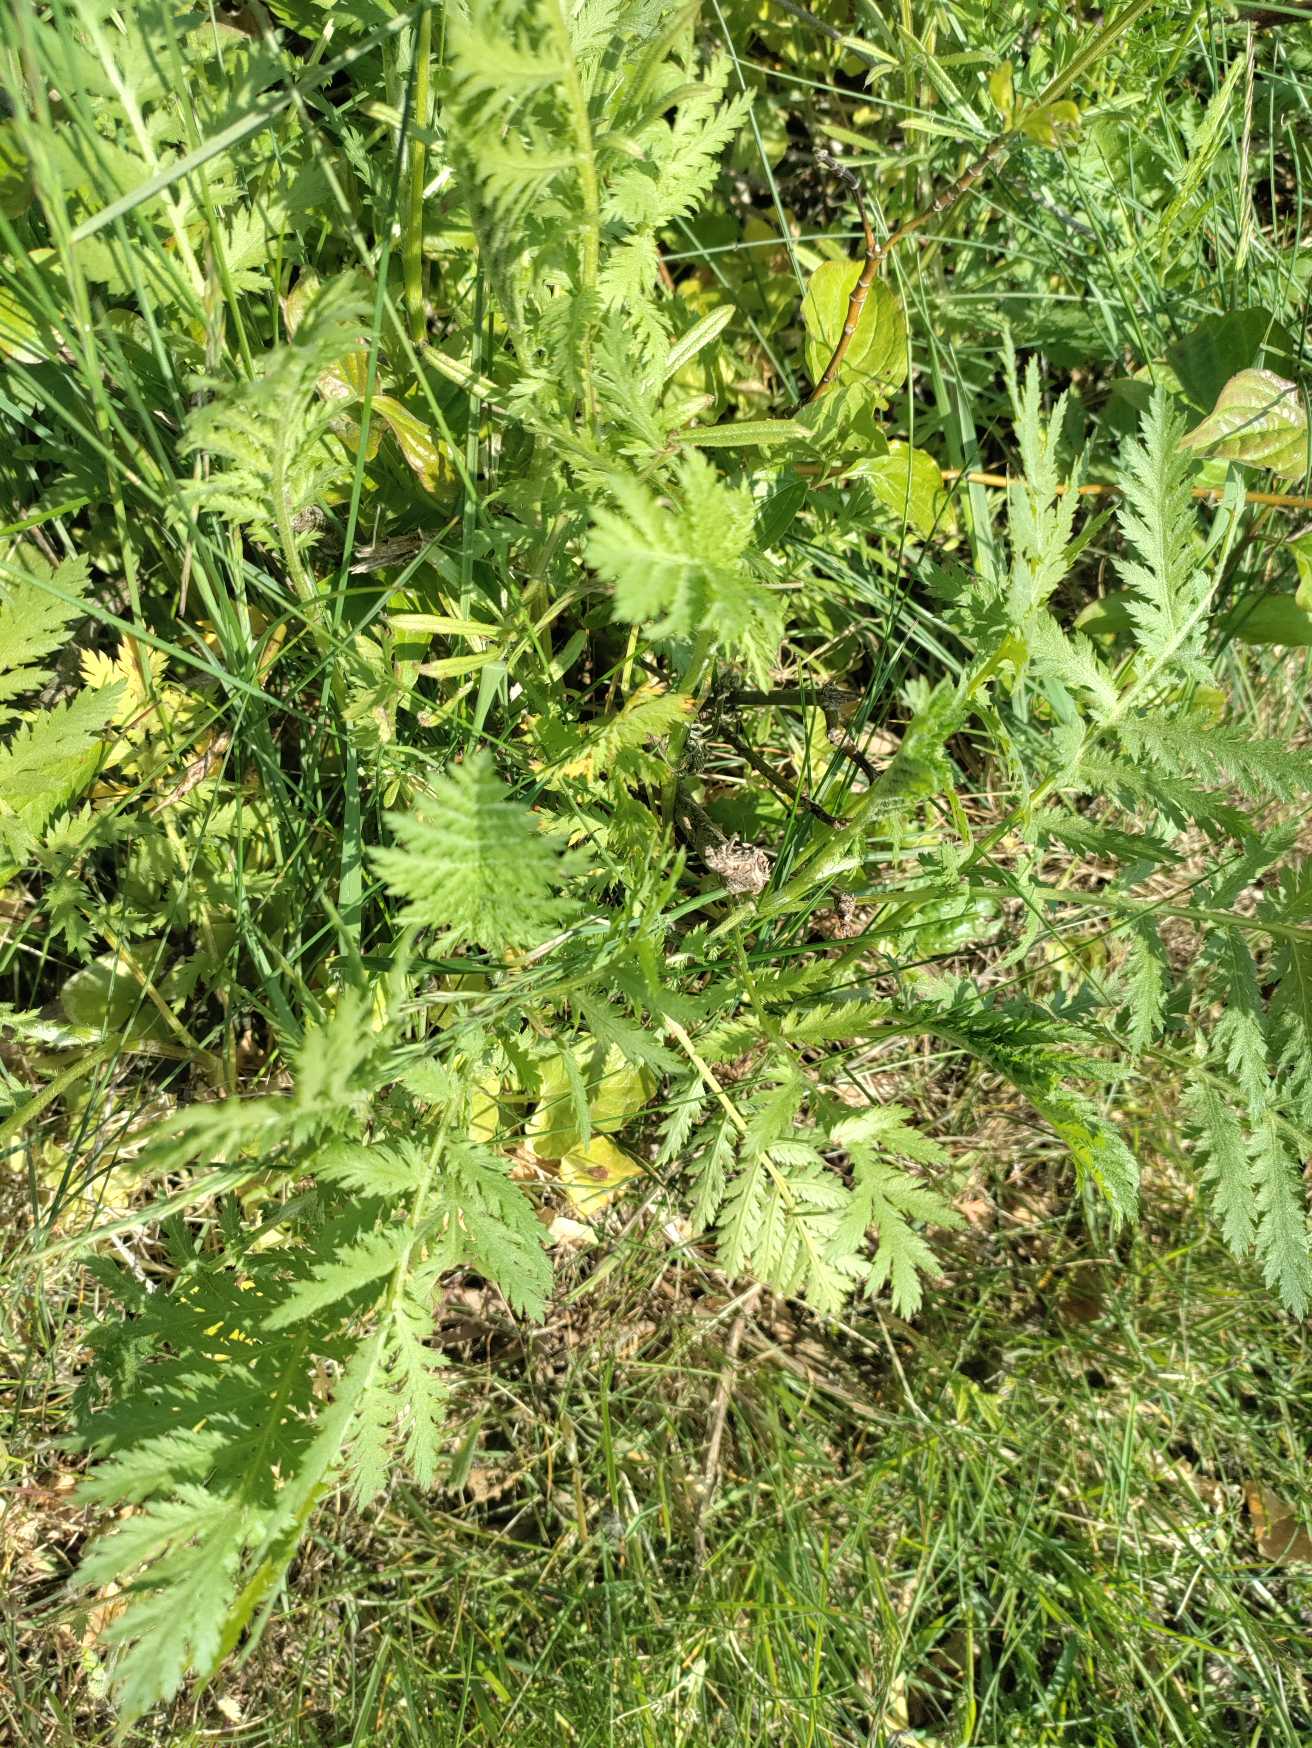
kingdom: Plantae
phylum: Tracheophyta
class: Magnoliopsida
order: Asterales
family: Asteraceae
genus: Tanacetum
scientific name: Tanacetum vulgare
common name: Rejnfan
